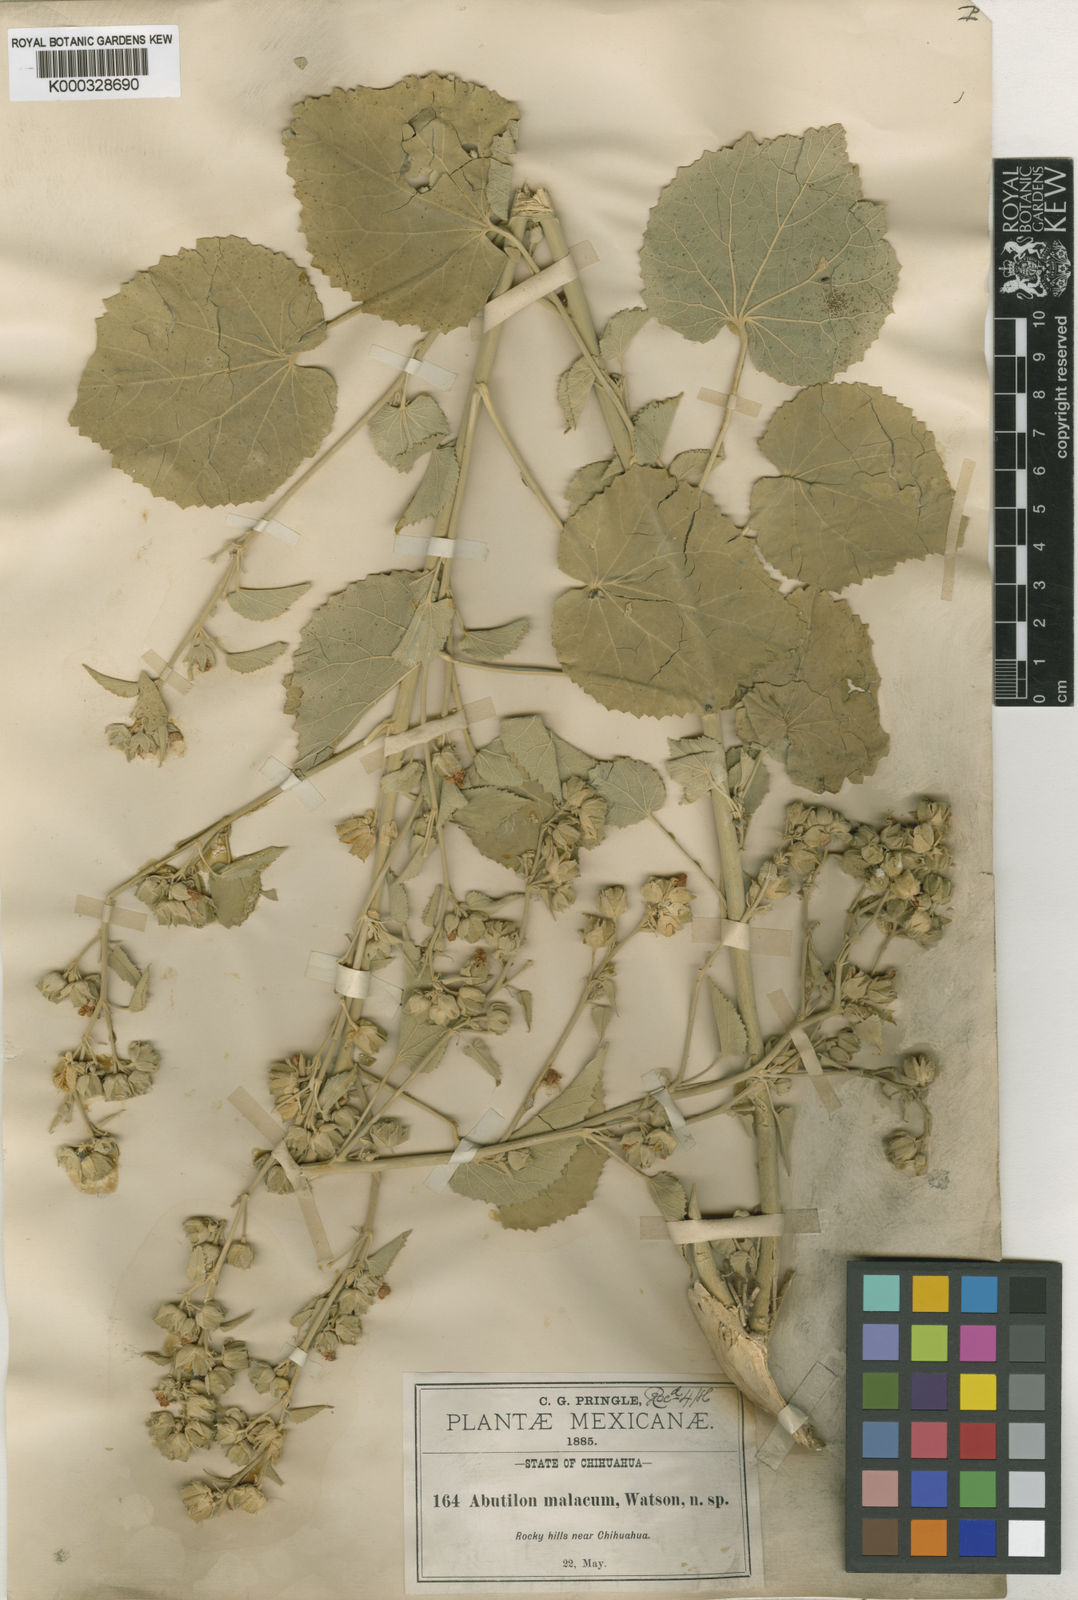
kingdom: Plantae
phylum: Tracheophyta
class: Magnoliopsida
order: Malvales
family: Malvaceae
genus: Abutilon
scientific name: Abutilon malacum
